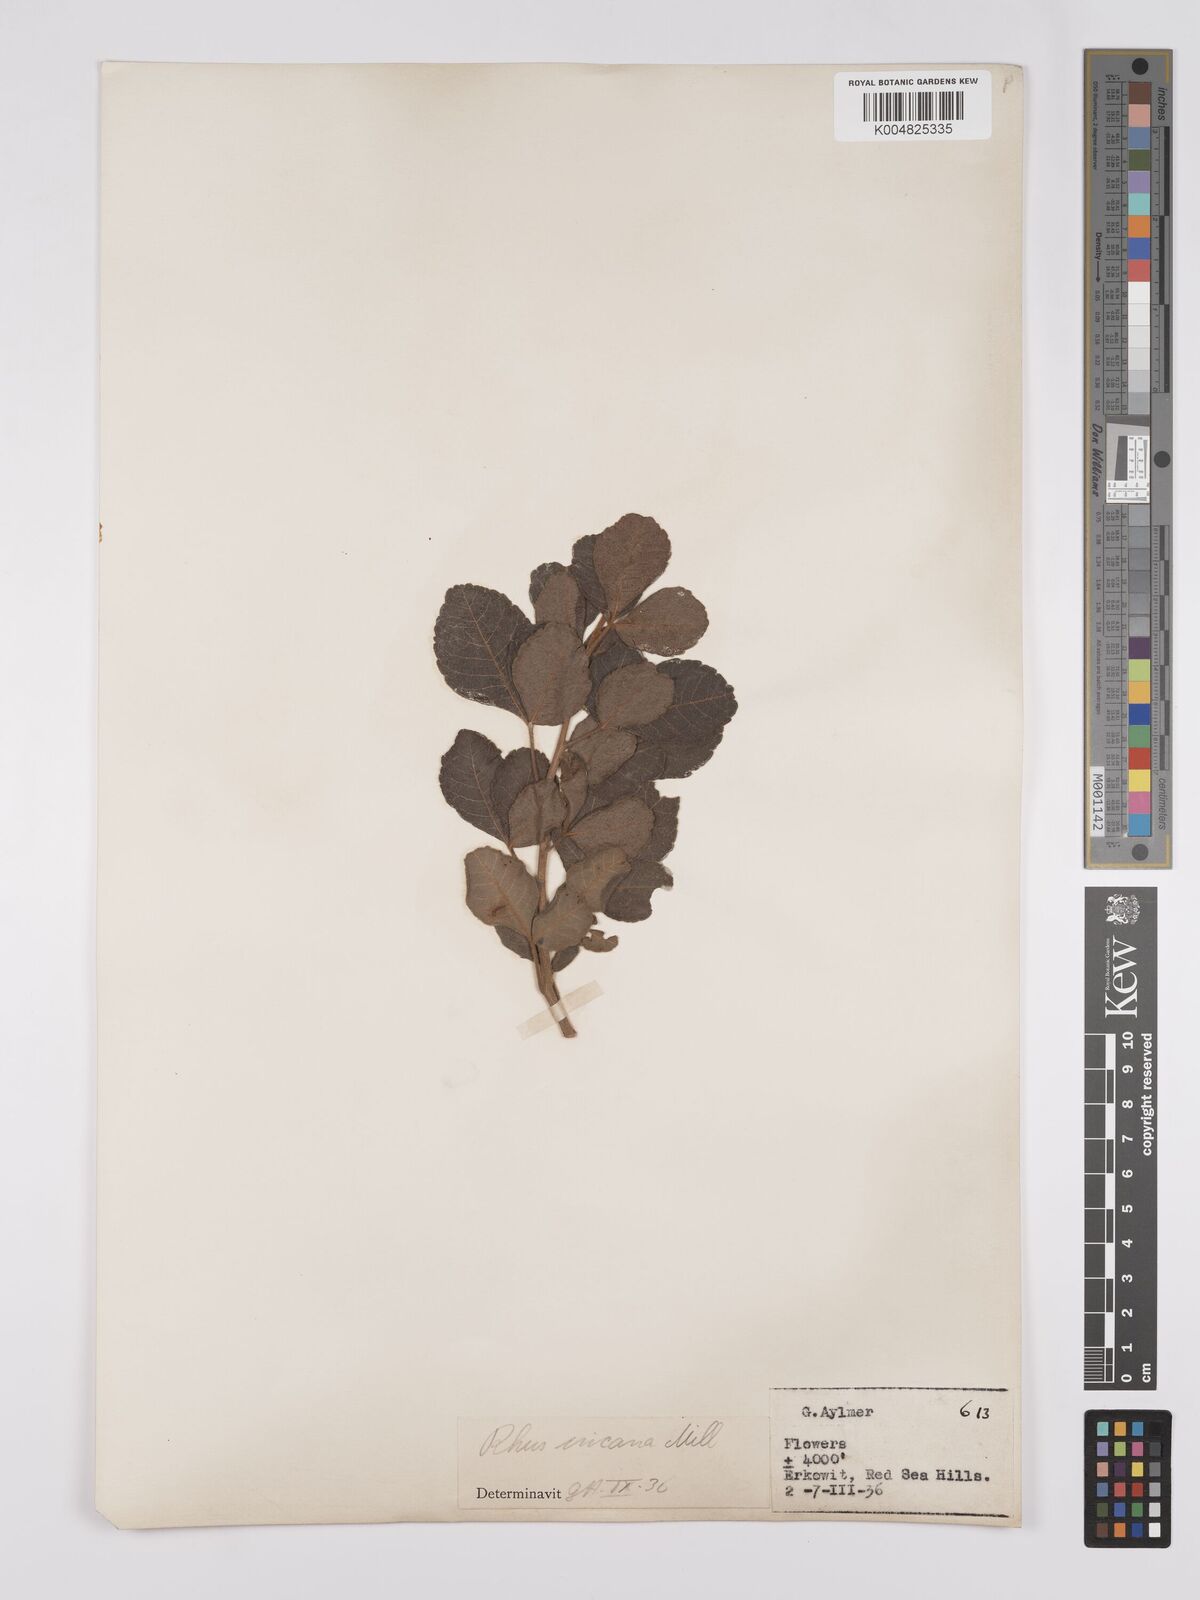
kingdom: Plantae
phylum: Tracheophyta
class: Magnoliopsida
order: Sapindales
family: Anacardiaceae
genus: Searsia
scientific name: Searsia flexicaulis
